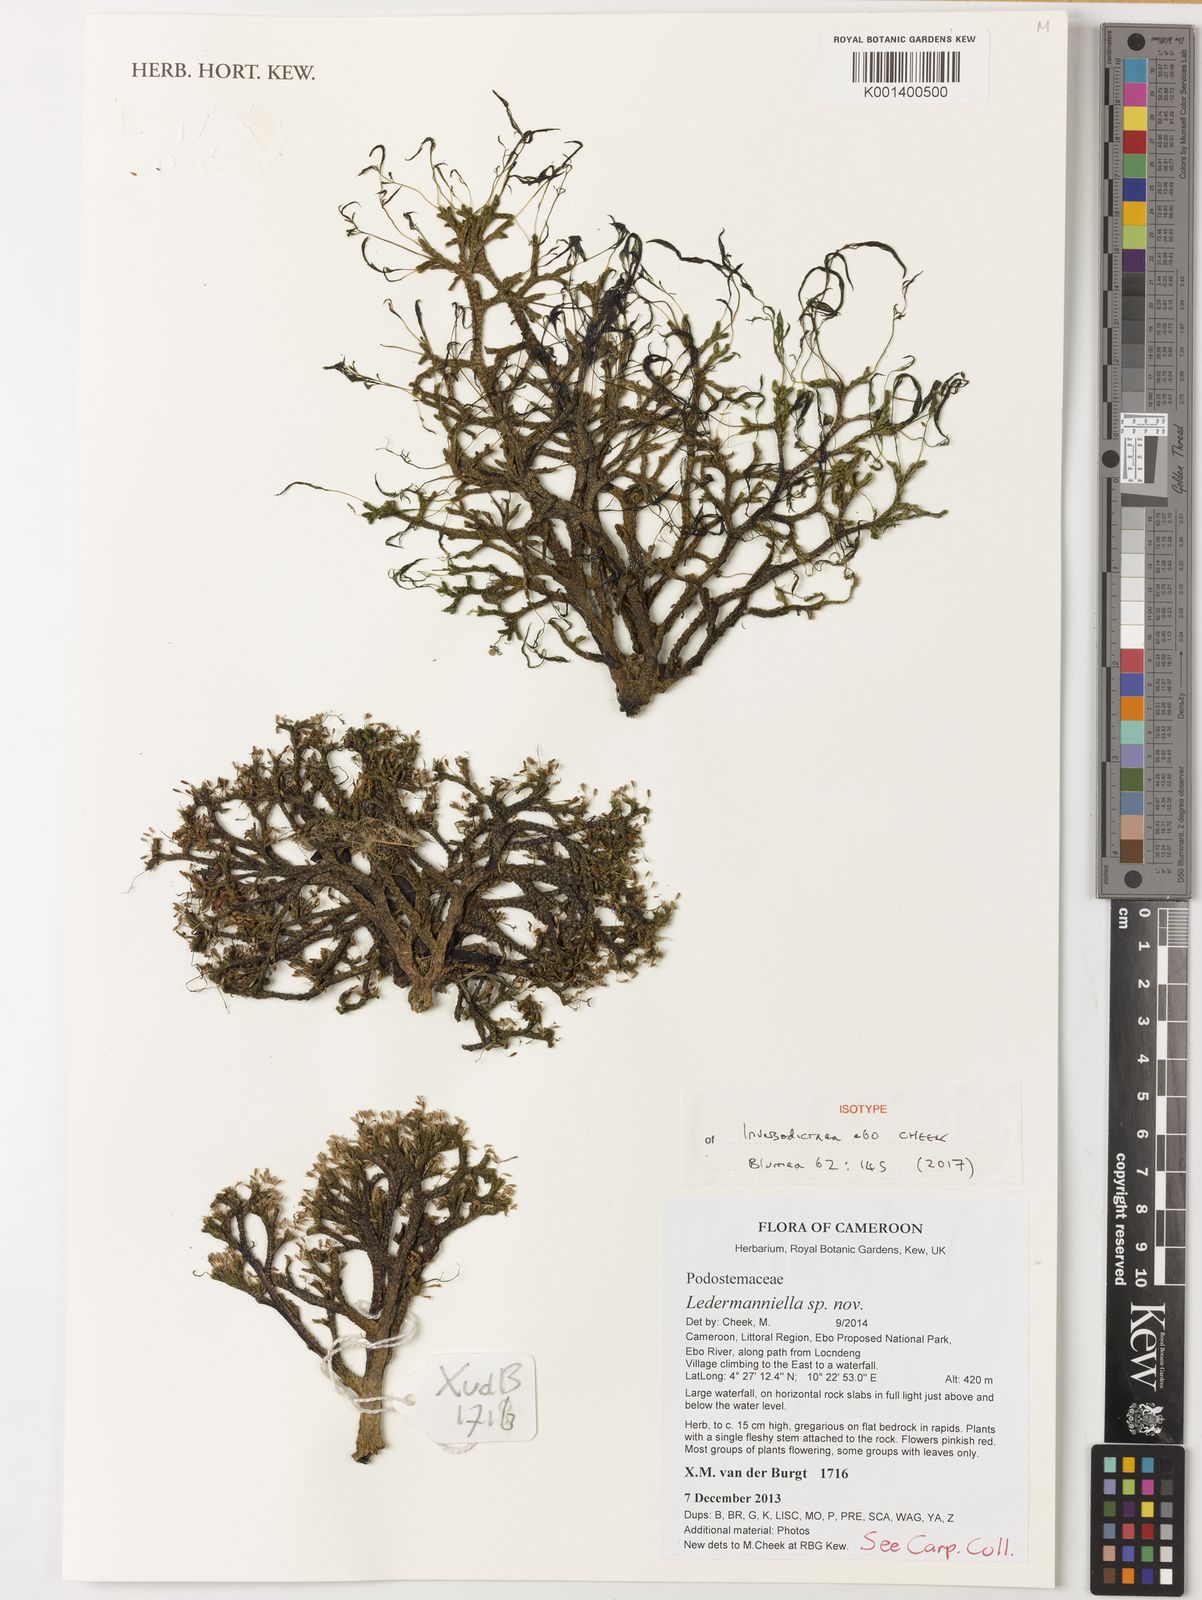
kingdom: Plantae
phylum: Tracheophyta
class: Magnoliopsida
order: Malpighiales
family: Podostemaceae
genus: Inversodicraea
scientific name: Inversodicraea ebo
